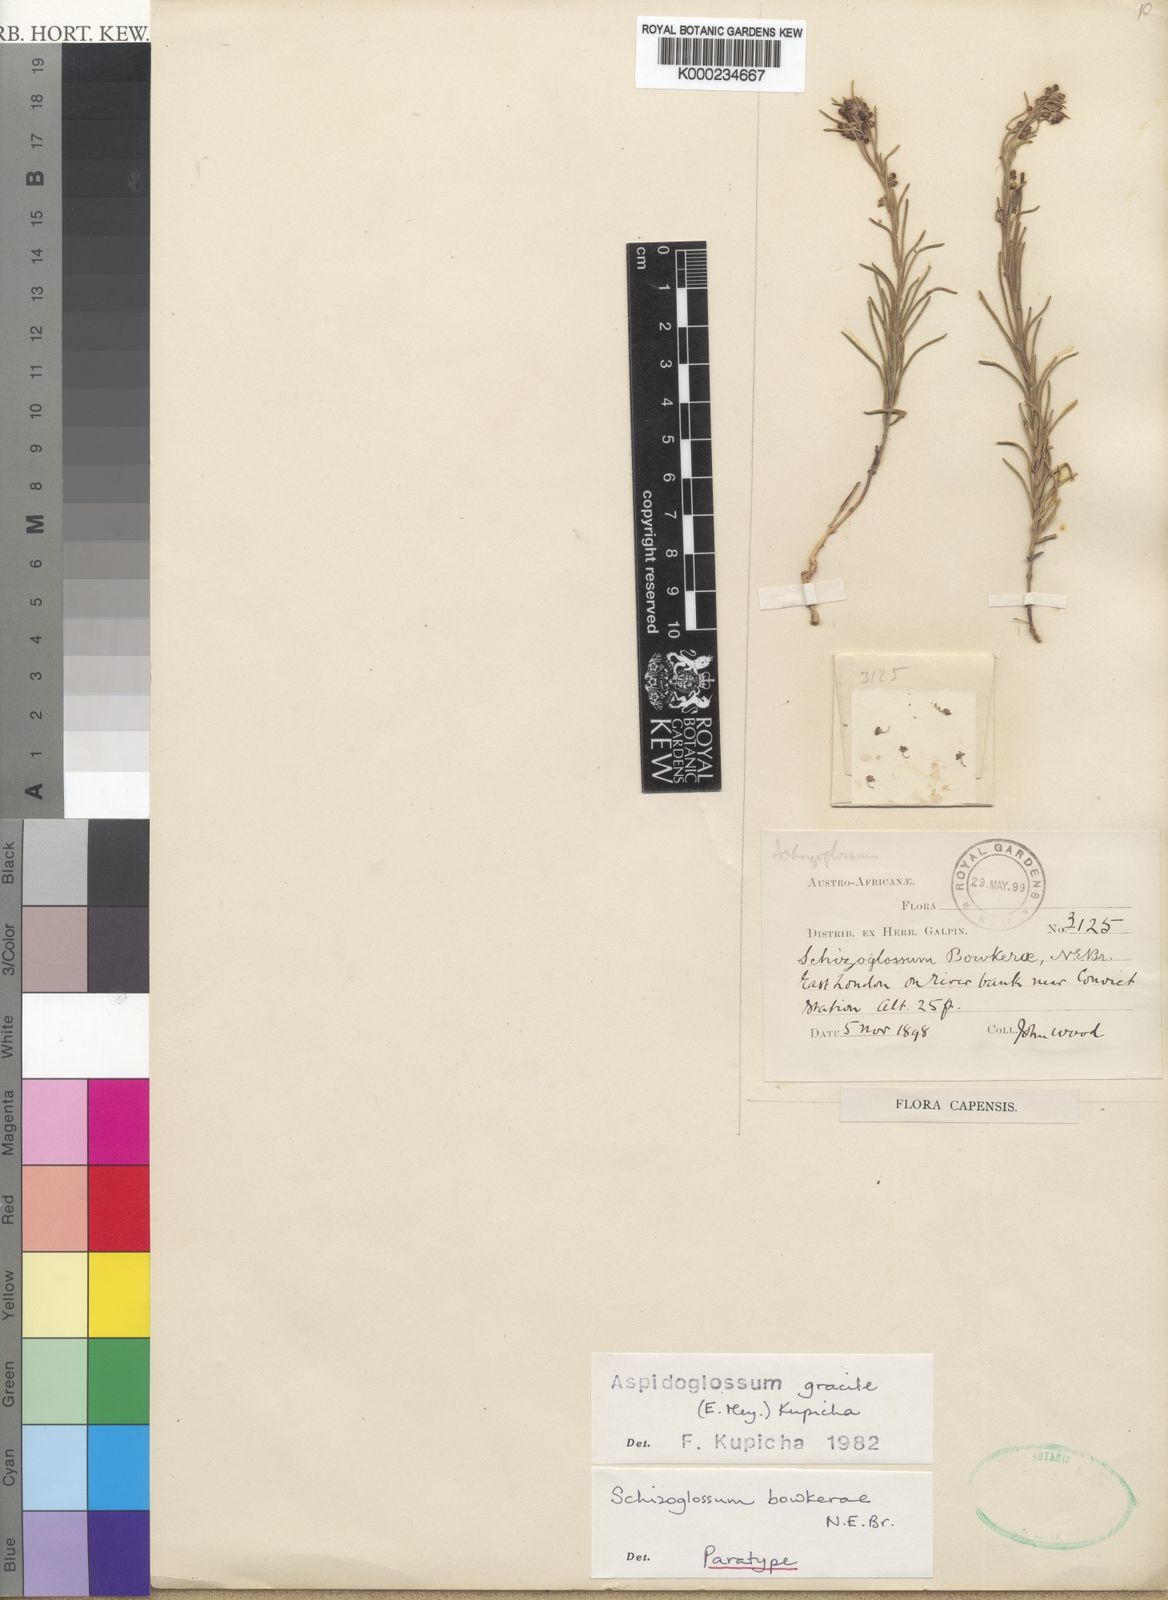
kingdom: Plantae
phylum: Tracheophyta
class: Magnoliopsida
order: Gentianales
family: Apocynaceae
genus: Aspidoglossum
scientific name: Aspidoglossum gracile
